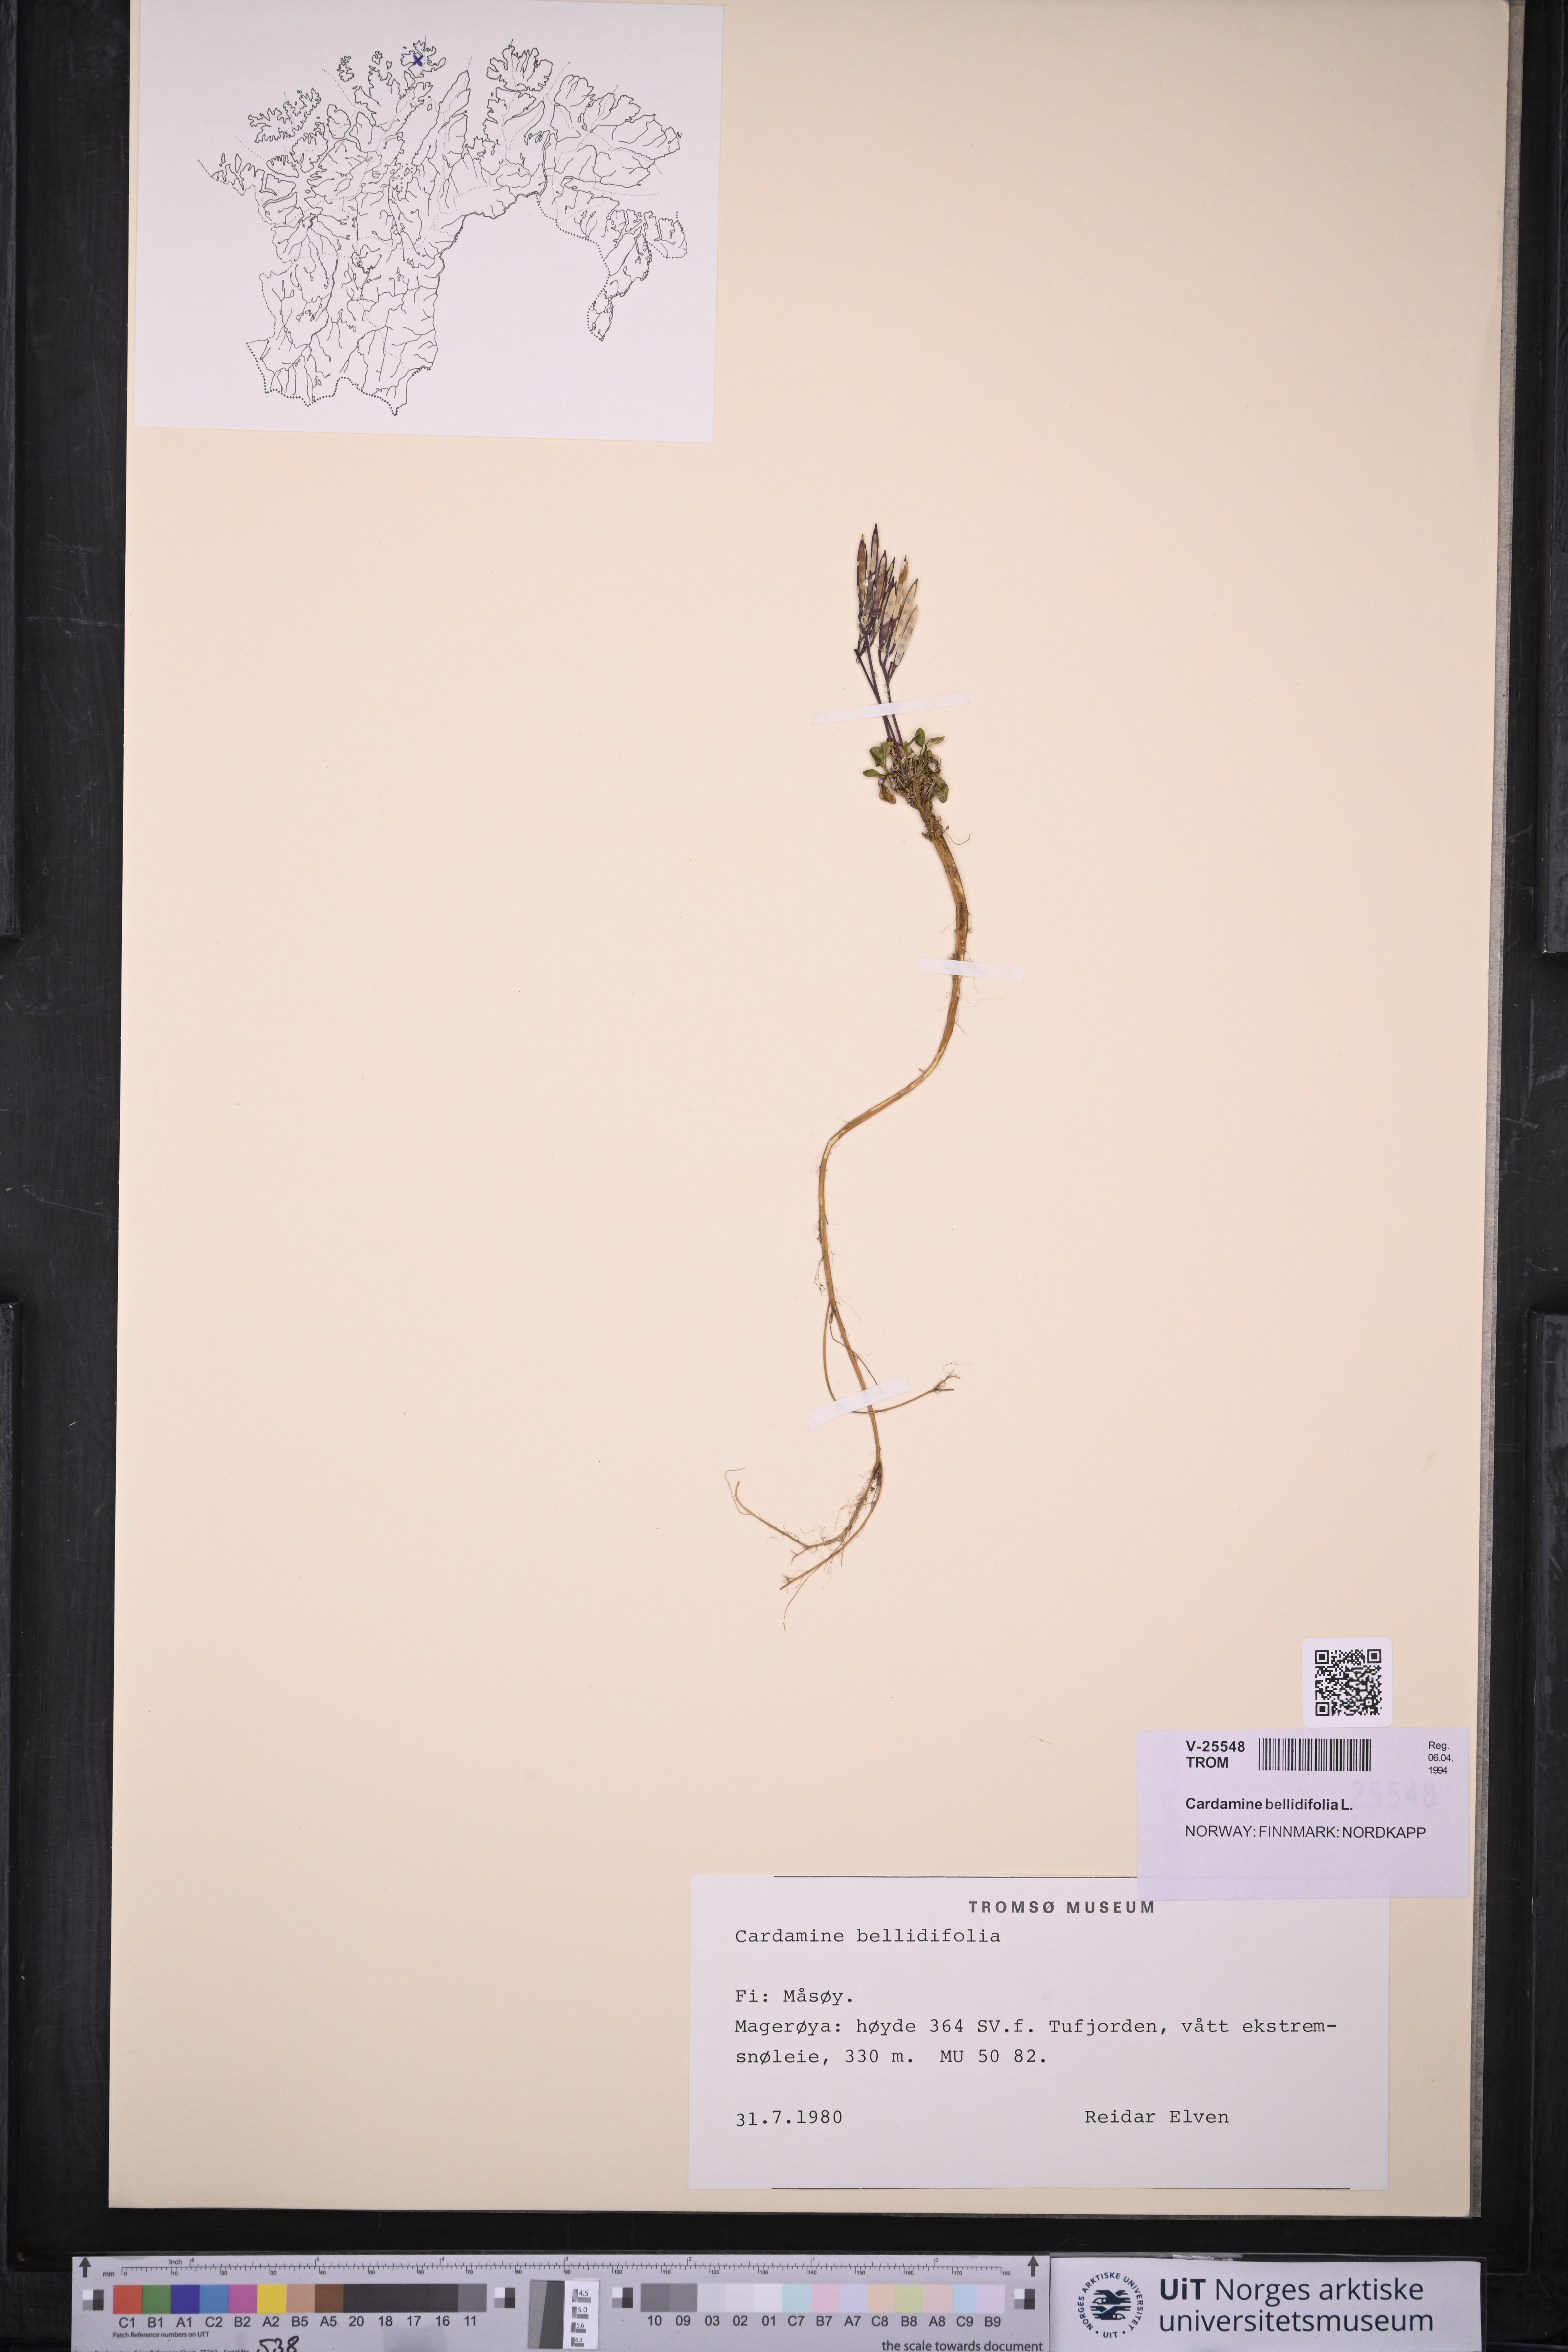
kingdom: Plantae
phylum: Tracheophyta
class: Magnoliopsida
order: Brassicales
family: Brassicaceae
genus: Cardamine
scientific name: Cardamine bellidifolia
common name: Alpine bittercress
